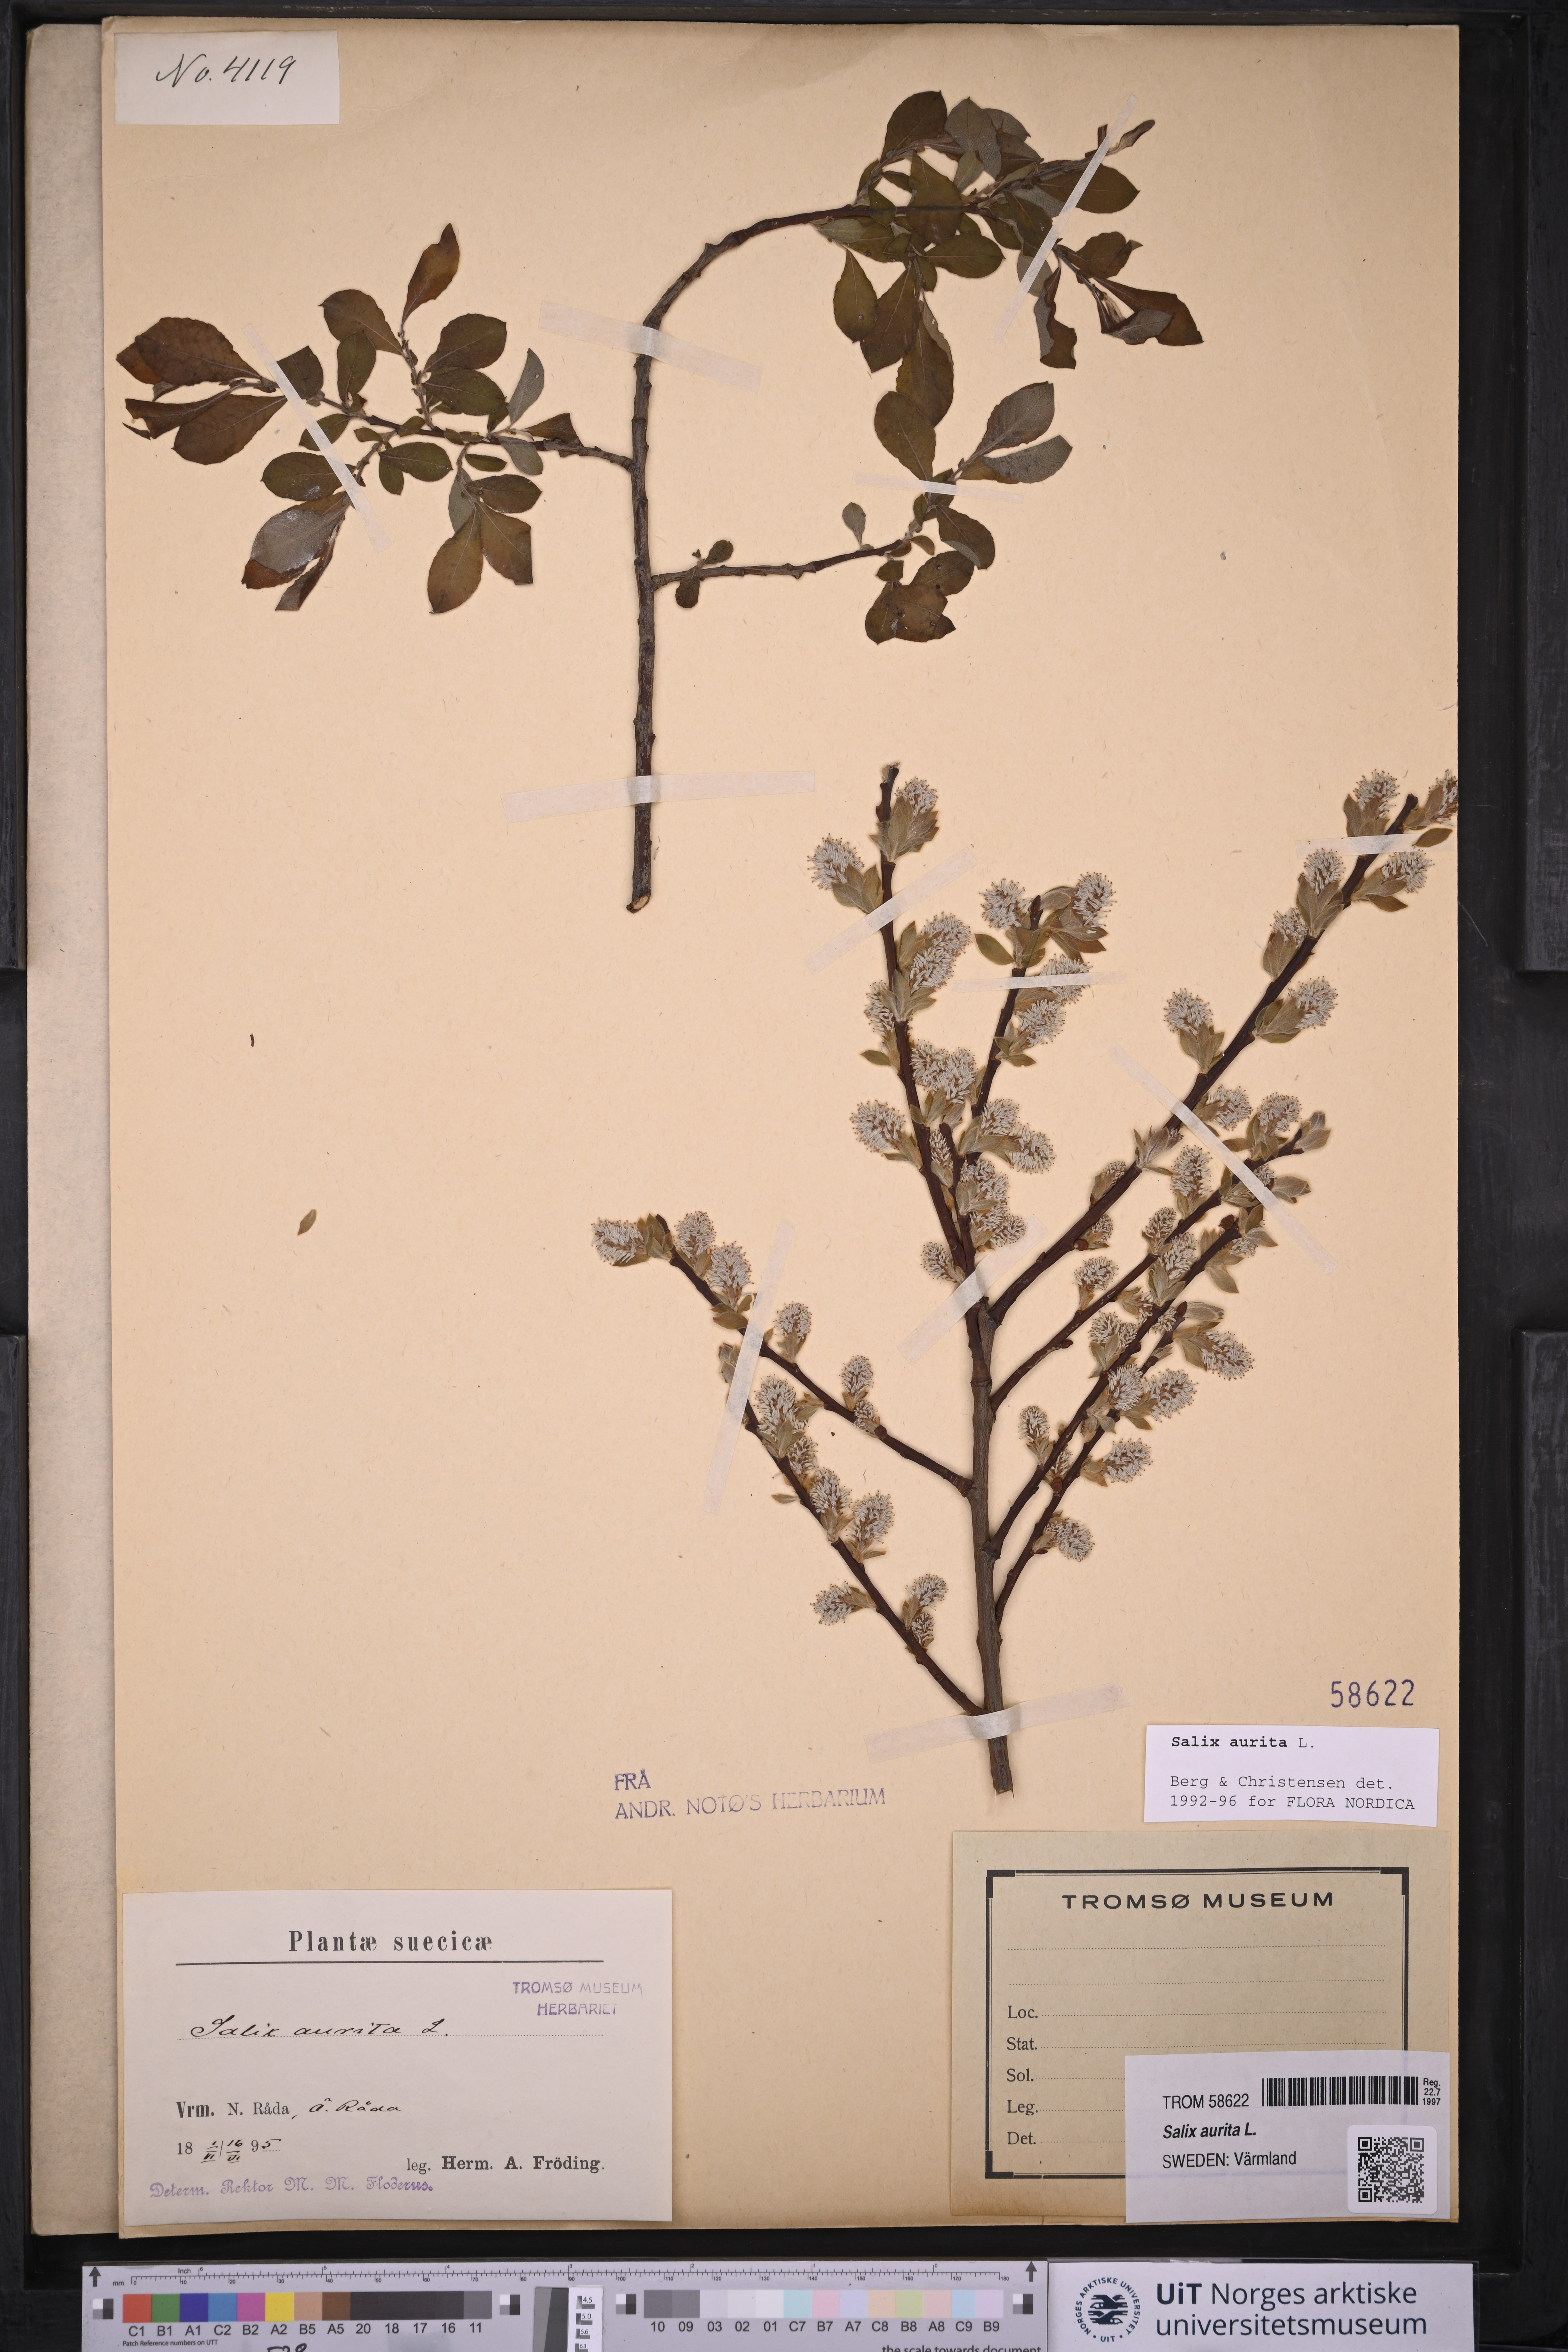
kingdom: Plantae
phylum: Tracheophyta
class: Magnoliopsida
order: Malpighiales
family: Salicaceae
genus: Salix
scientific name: Salix aurita
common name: Eared willow
